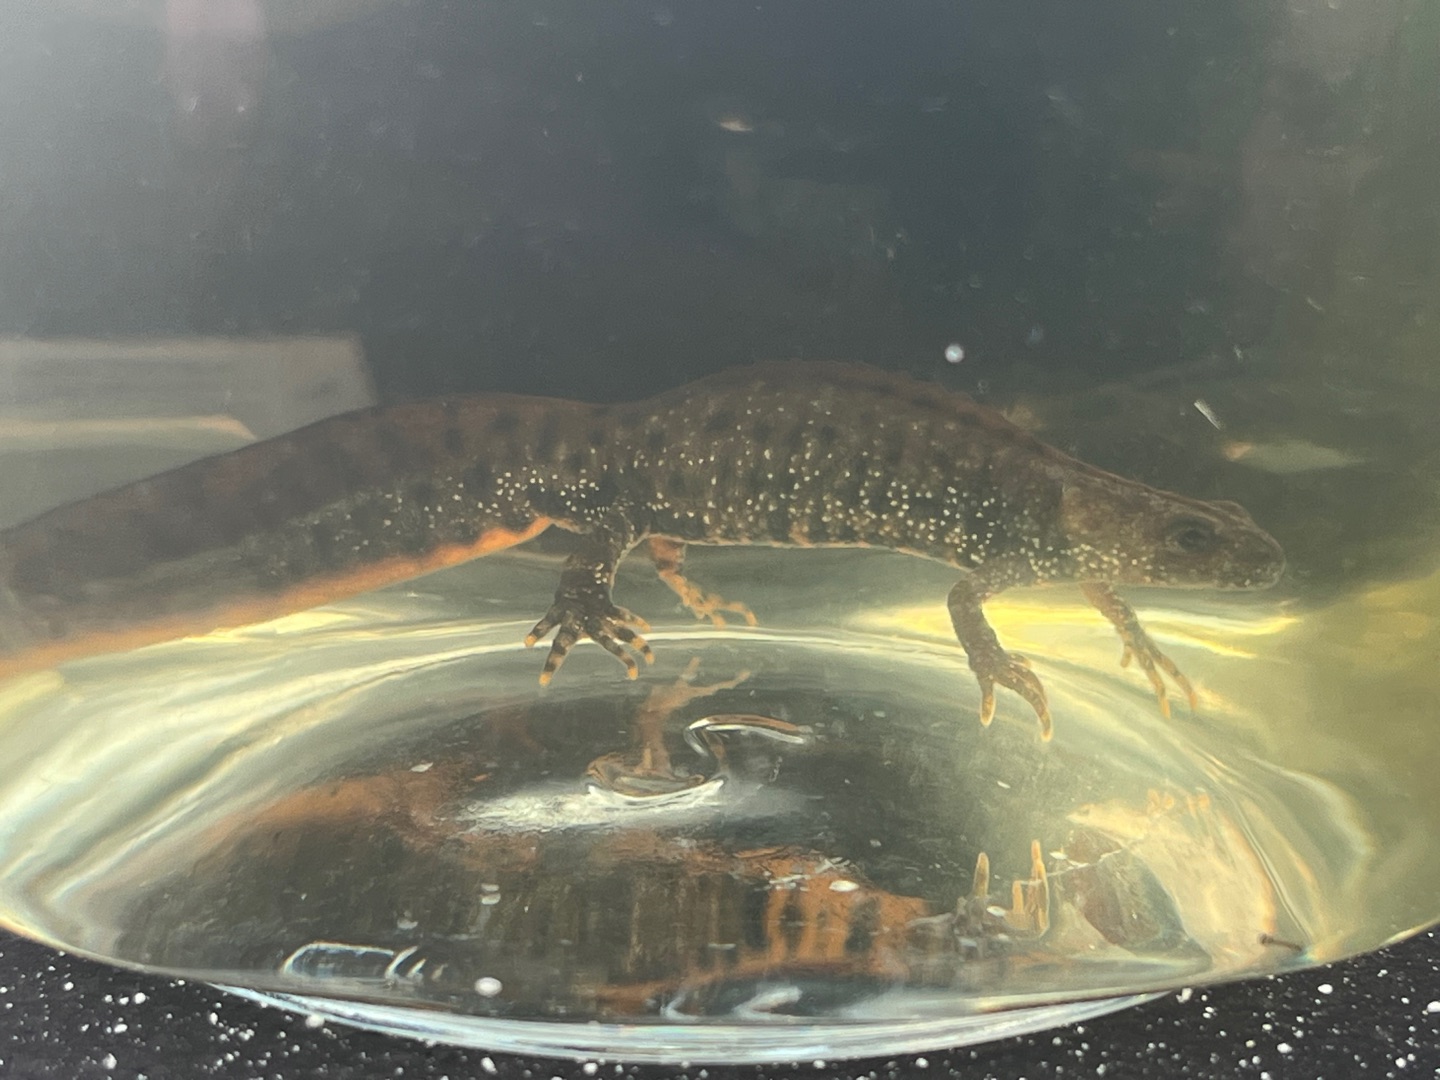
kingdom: Animalia
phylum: Chordata
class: Amphibia
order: Caudata
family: Salamandridae
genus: Triturus
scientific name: Triturus cristatus
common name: Stor vandsalamander
